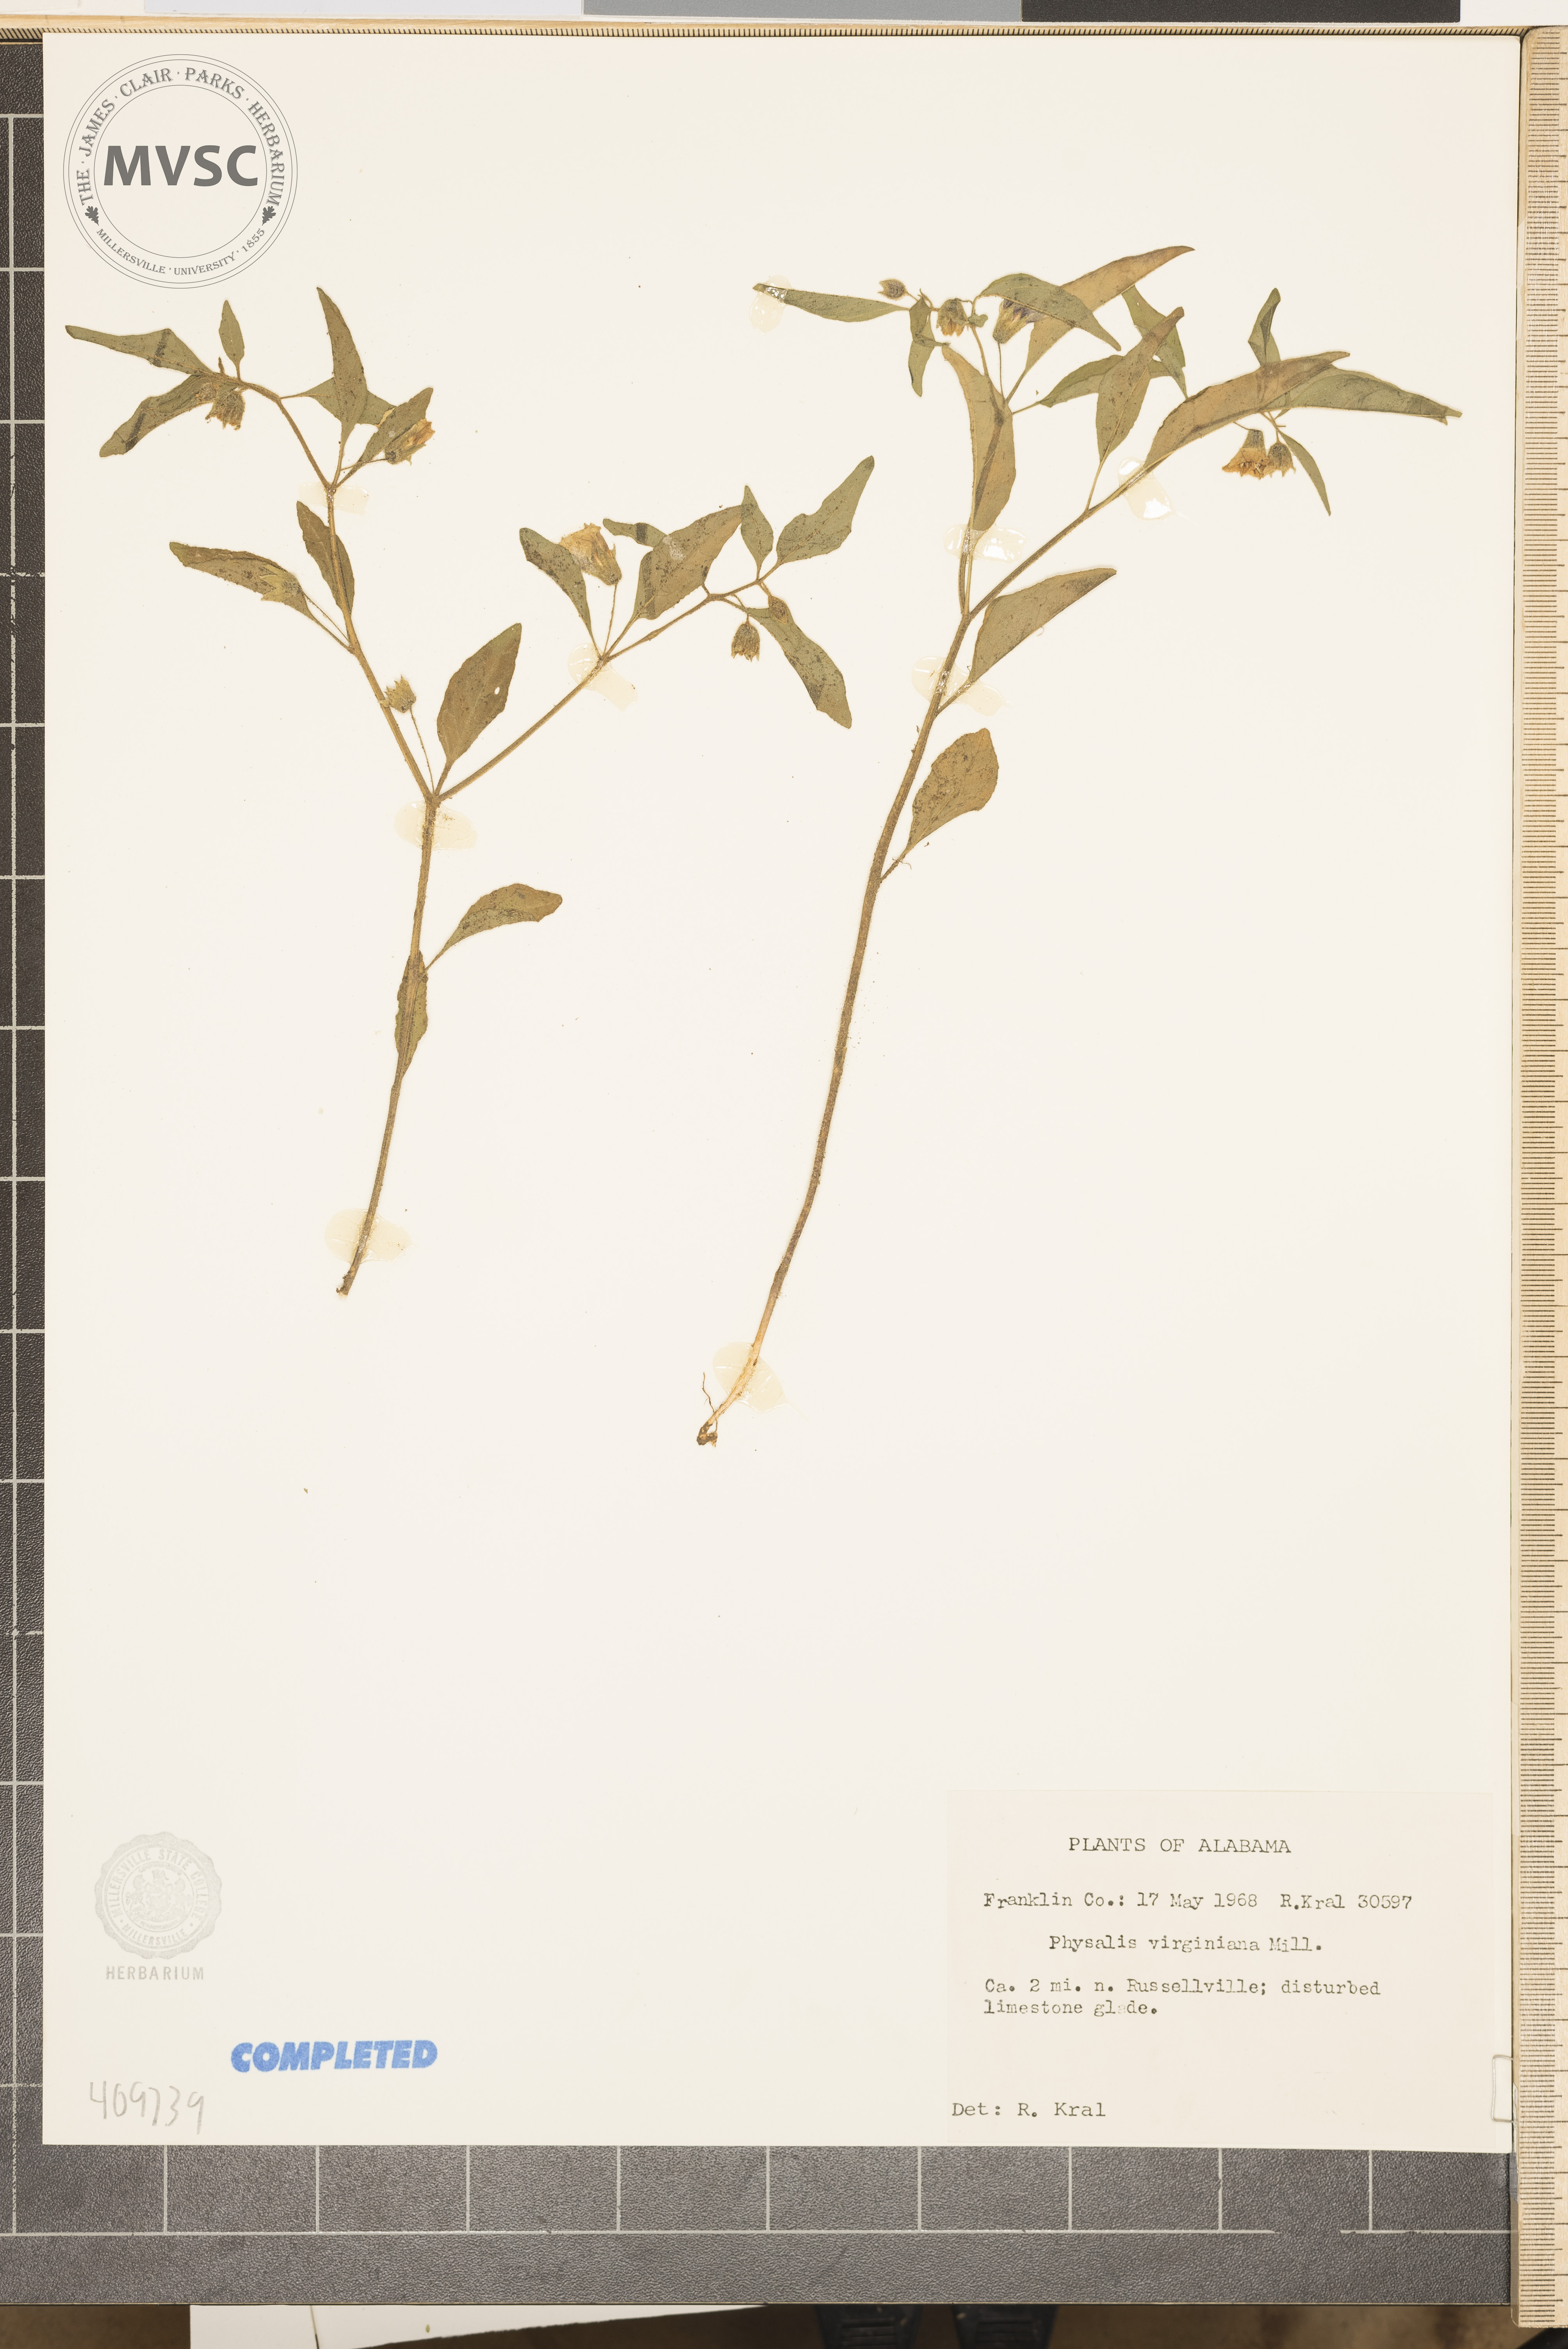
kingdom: Plantae
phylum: Tracheophyta
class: Magnoliopsida
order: Solanales
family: Solanaceae
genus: Physalis
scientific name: Physalis virginiana
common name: Virginia ground-cherry
